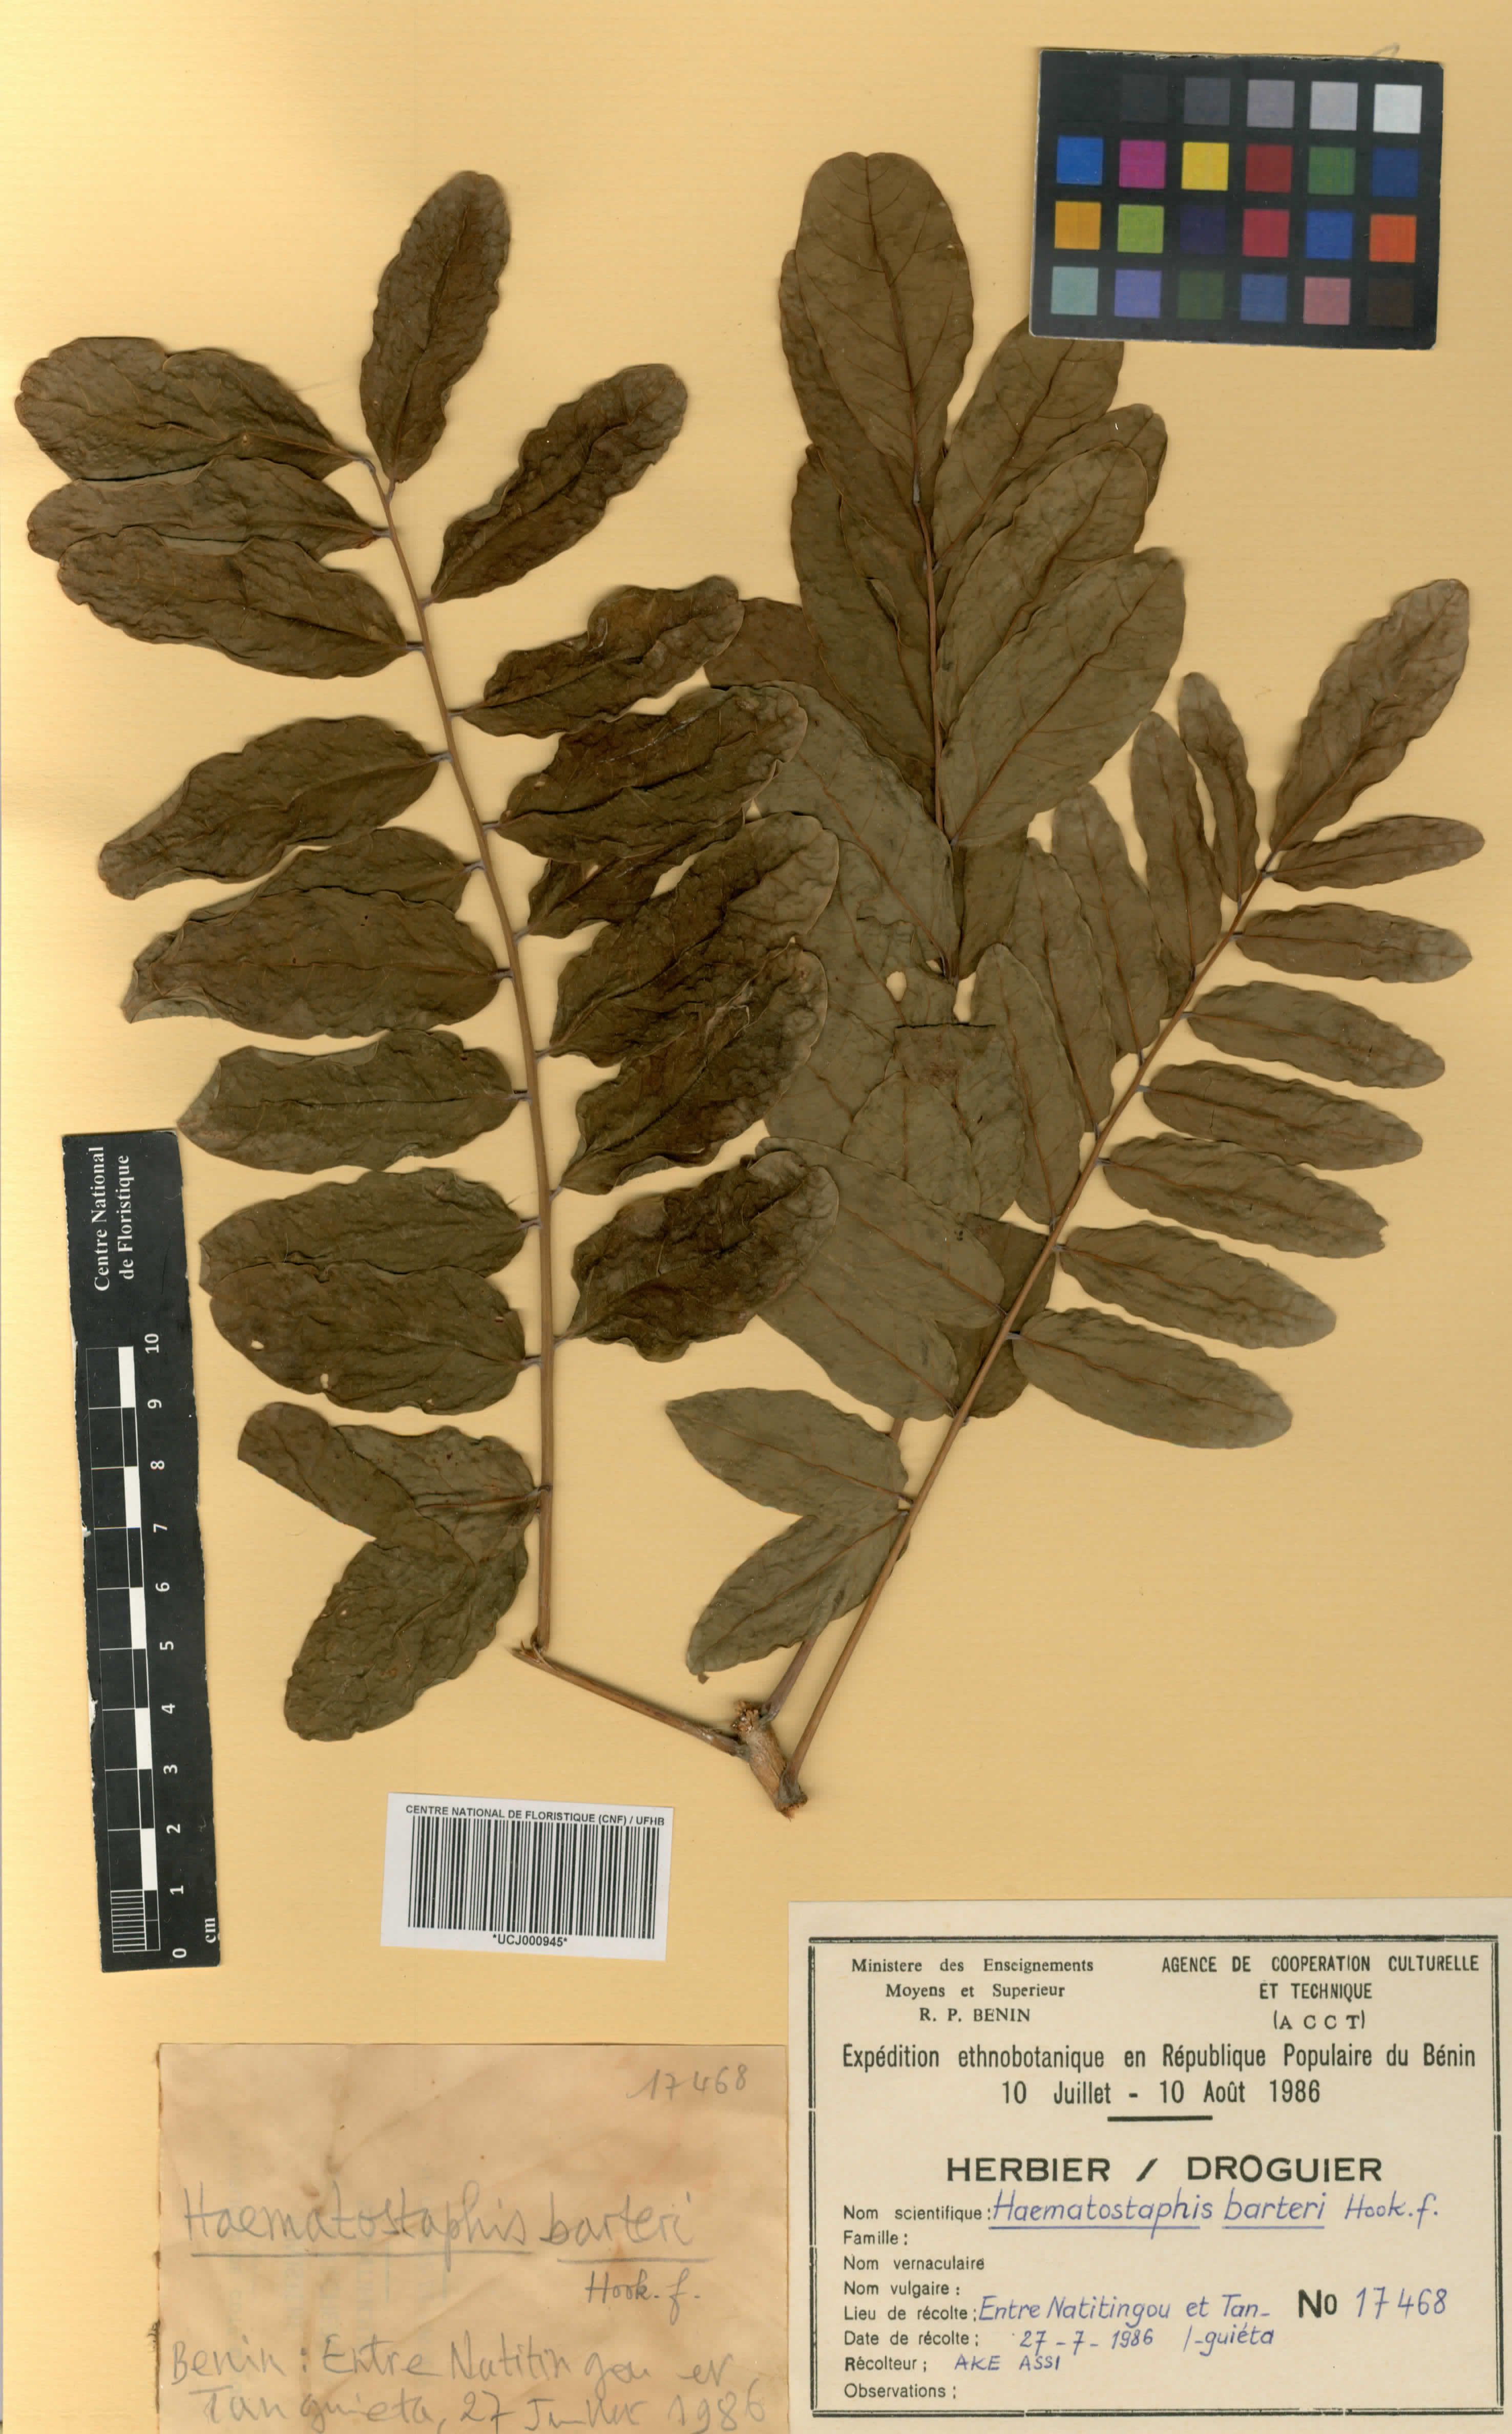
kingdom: Plantae
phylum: Tracheophyta
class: Magnoliopsida
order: Sapindales
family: Anacardiaceae
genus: Haematostaphis
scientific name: Haematostaphis barteri
